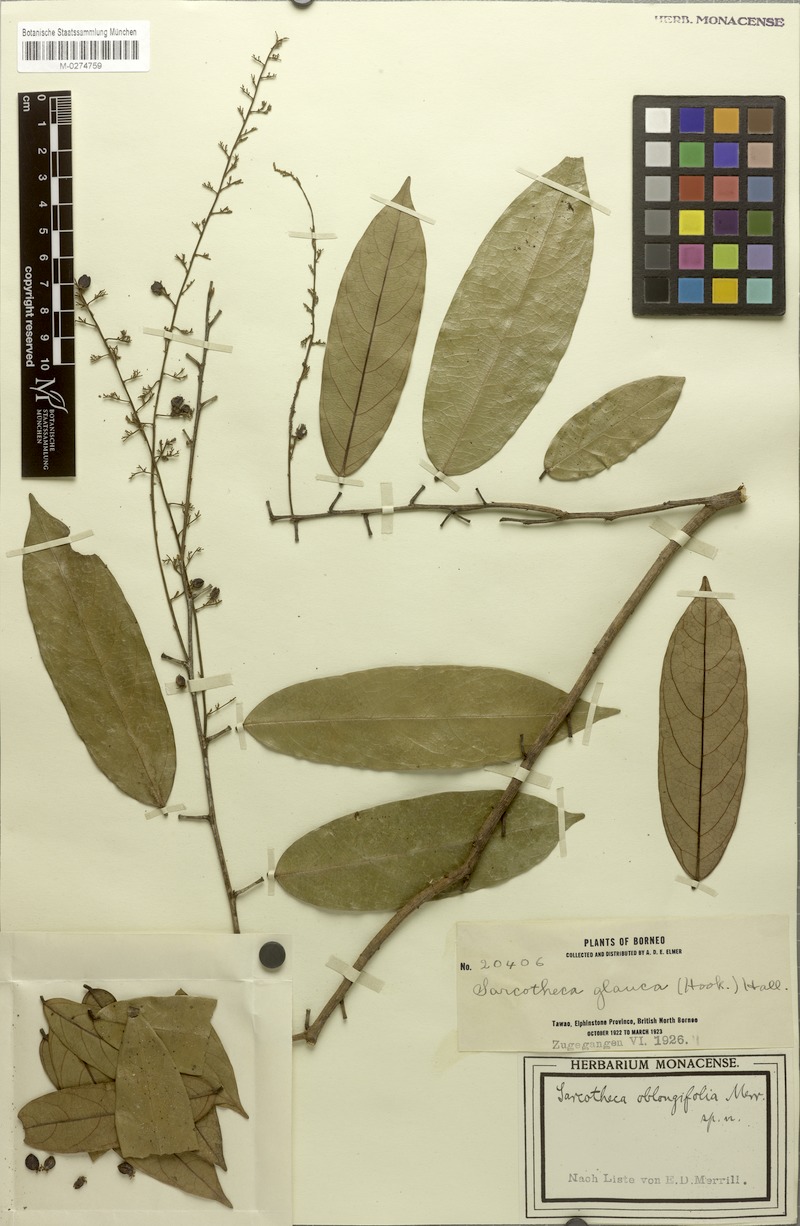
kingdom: Plantae
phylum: Tracheophyta
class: Magnoliopsida
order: Oxalidales
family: Oxalidaceae
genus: Sarcotheca
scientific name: Sarcotheca rubrinervis
